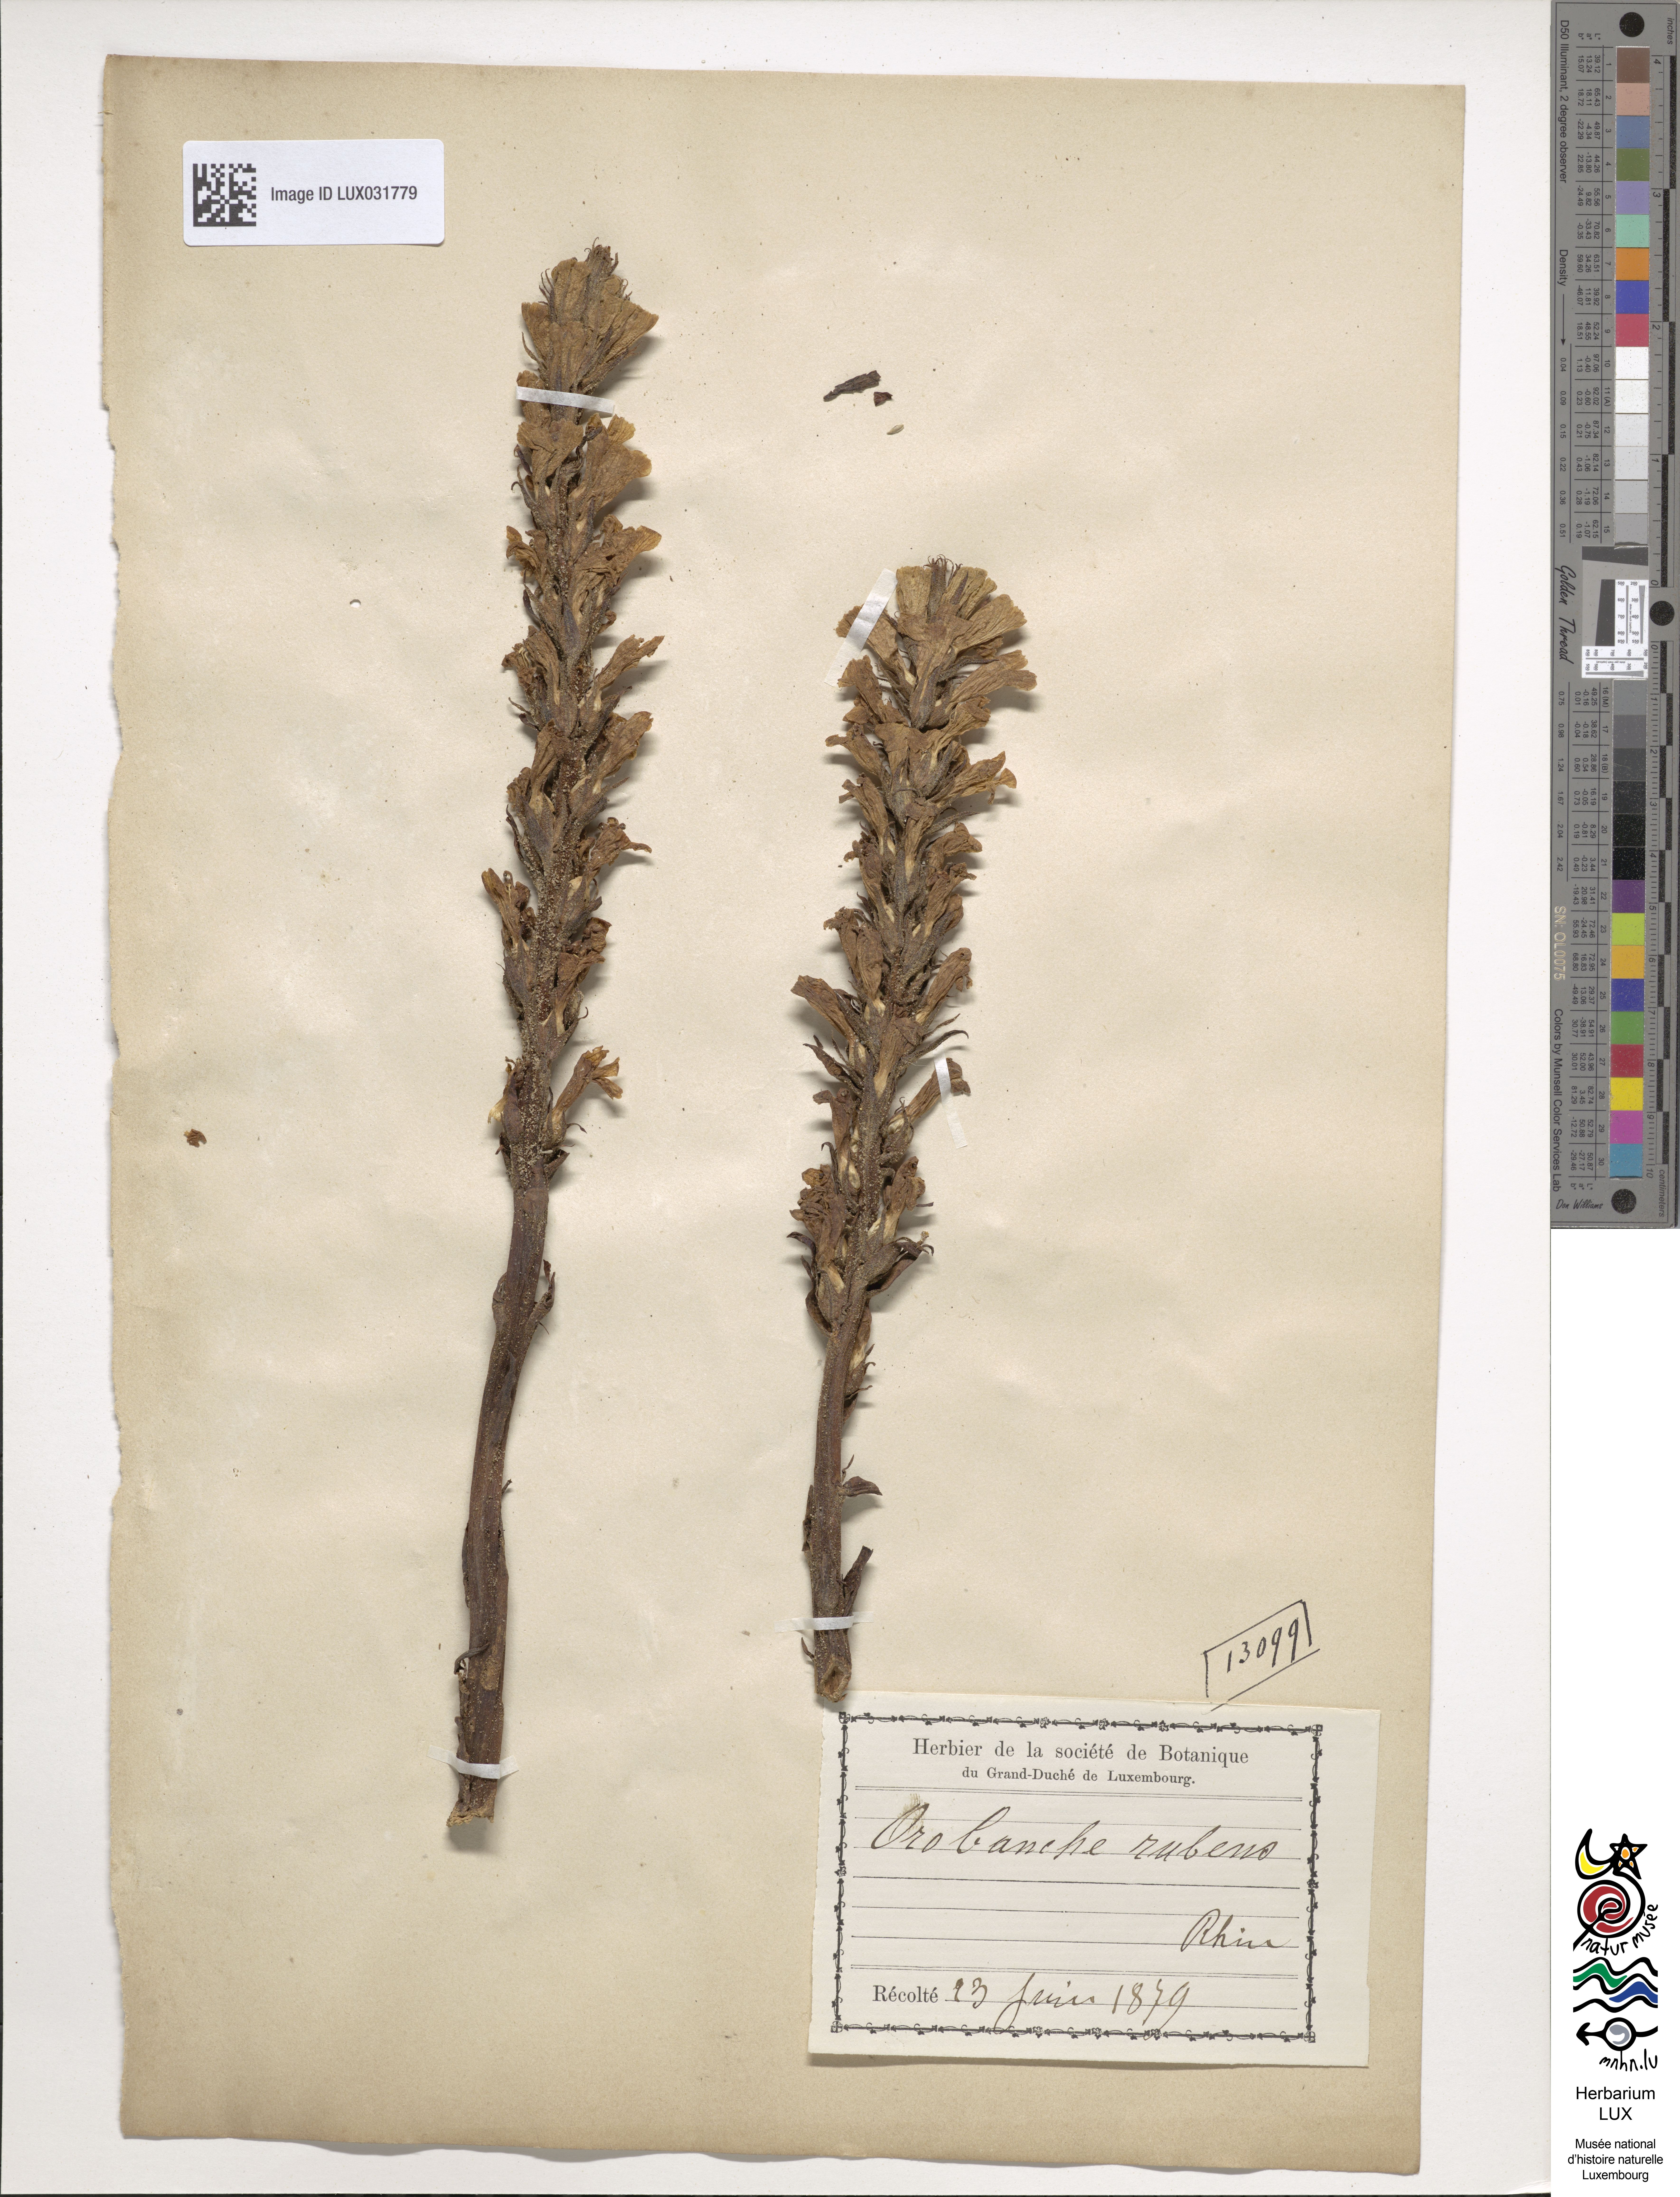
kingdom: Plantae
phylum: Tracheophyta
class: Magnoliopsida
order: Lamiales
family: Orobanchaceae
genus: Orobanche
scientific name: Orobanche lutea
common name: Yellow broomrape
